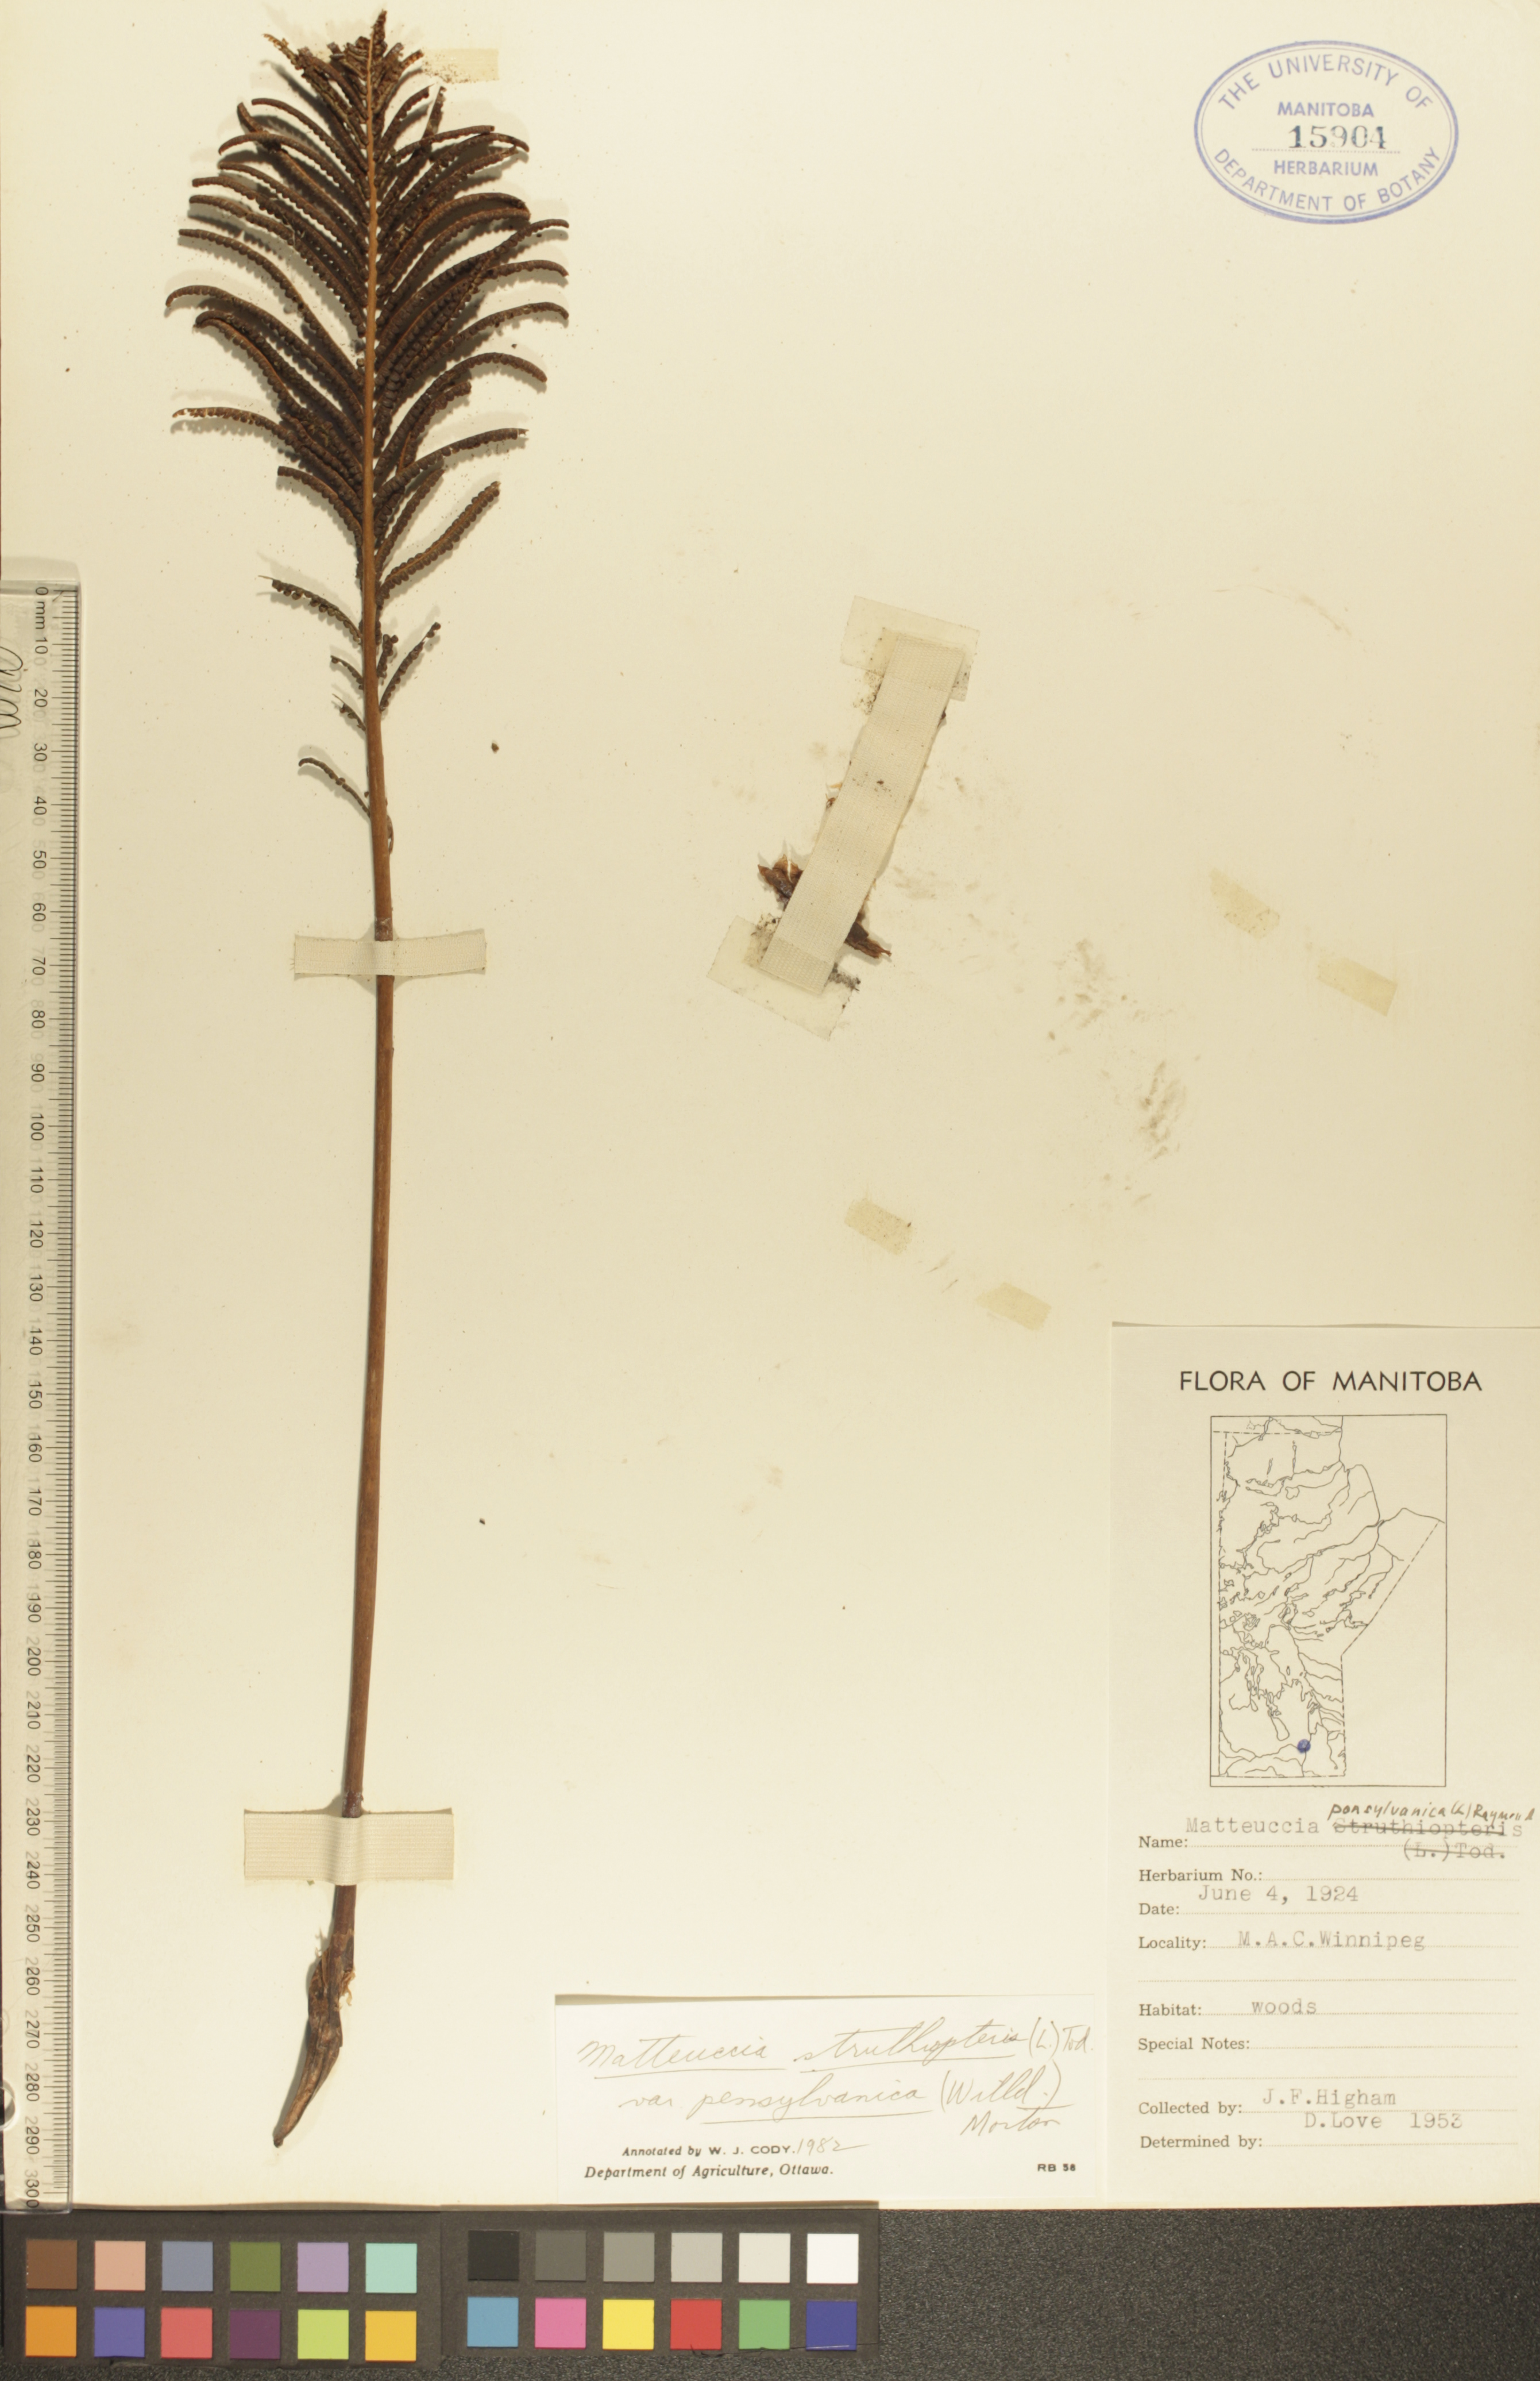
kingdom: Plantae
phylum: Tracheophyta
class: Polypodiopsida
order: Polypodiales
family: Onocleaceae
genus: Matteuccia
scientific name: Matteuccia pensylvanica
